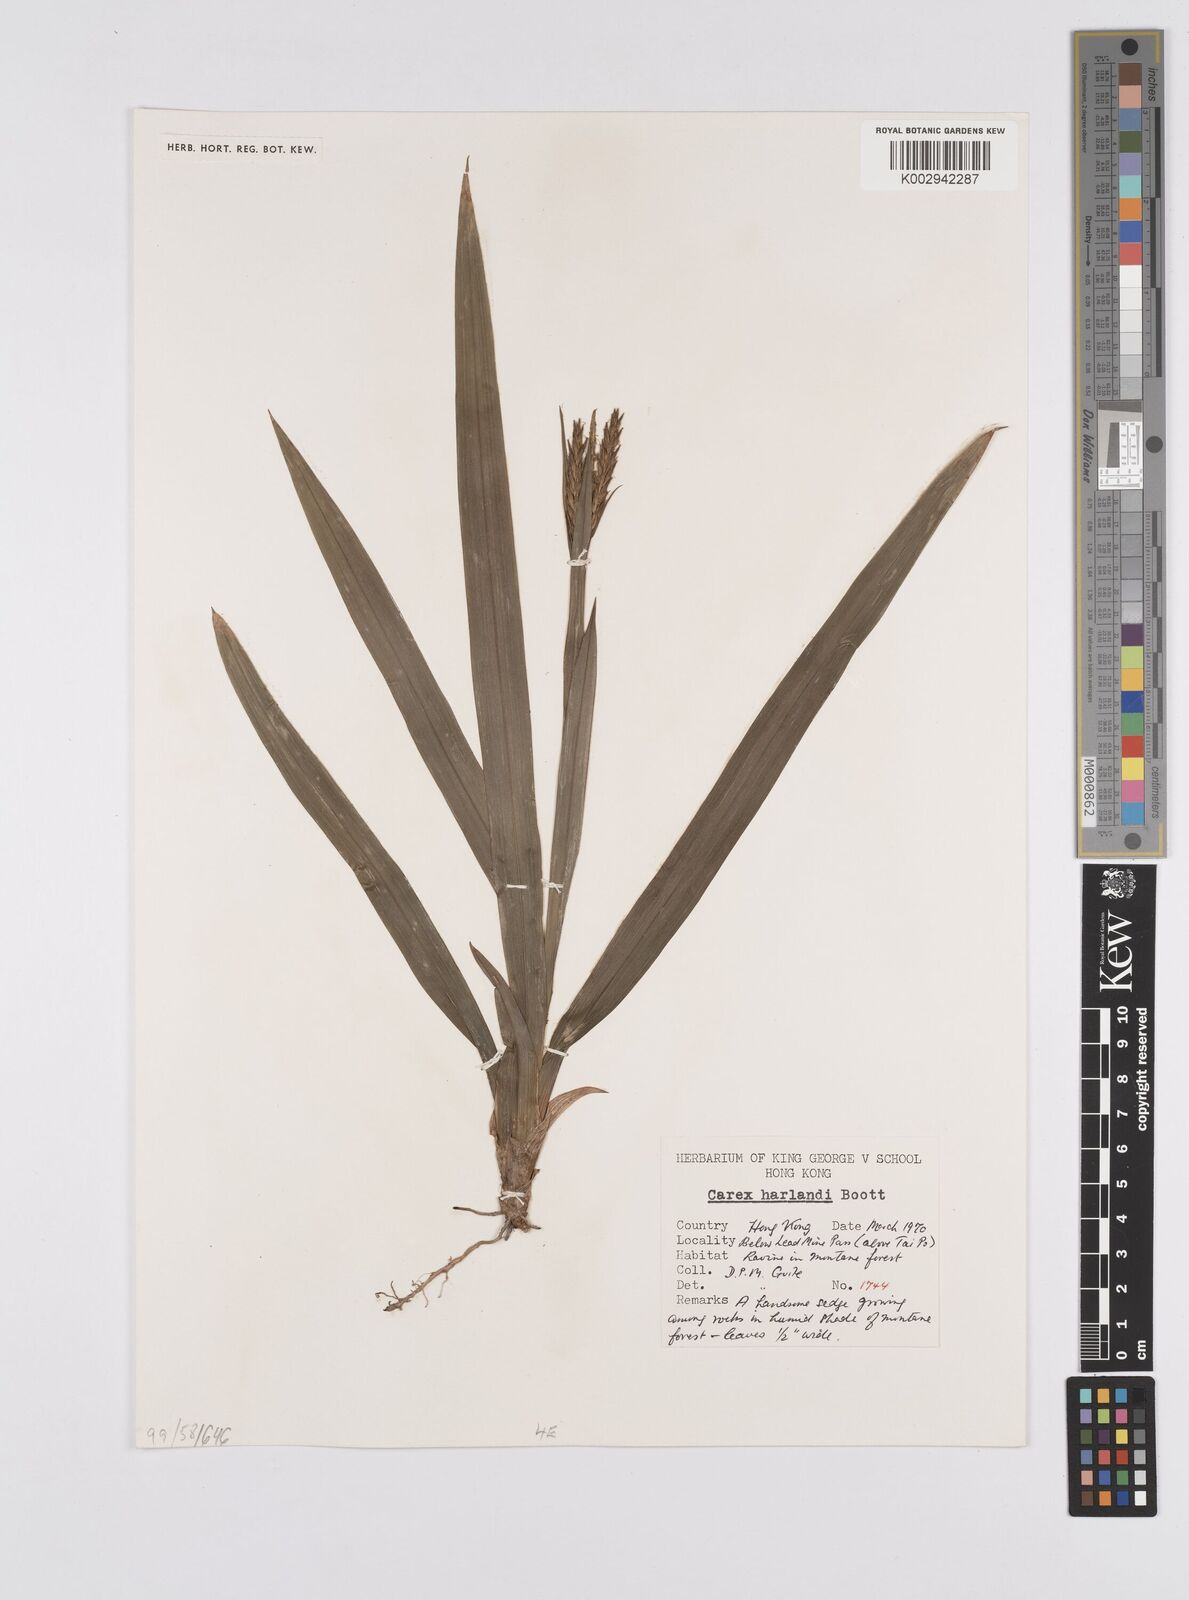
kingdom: Plantae
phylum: Tracheophyta
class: Liliopsida
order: Poales
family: Cyperaceae
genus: Carex
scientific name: Carex harlandii
